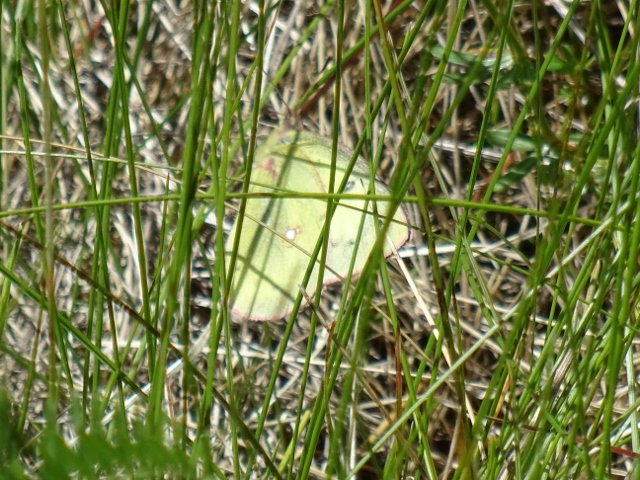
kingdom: Animalia
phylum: Arthropoda
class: Insecta
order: Lepidoptera
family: Pieridae
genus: Colias
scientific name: Colias philodice
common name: Clouded Sulphur
